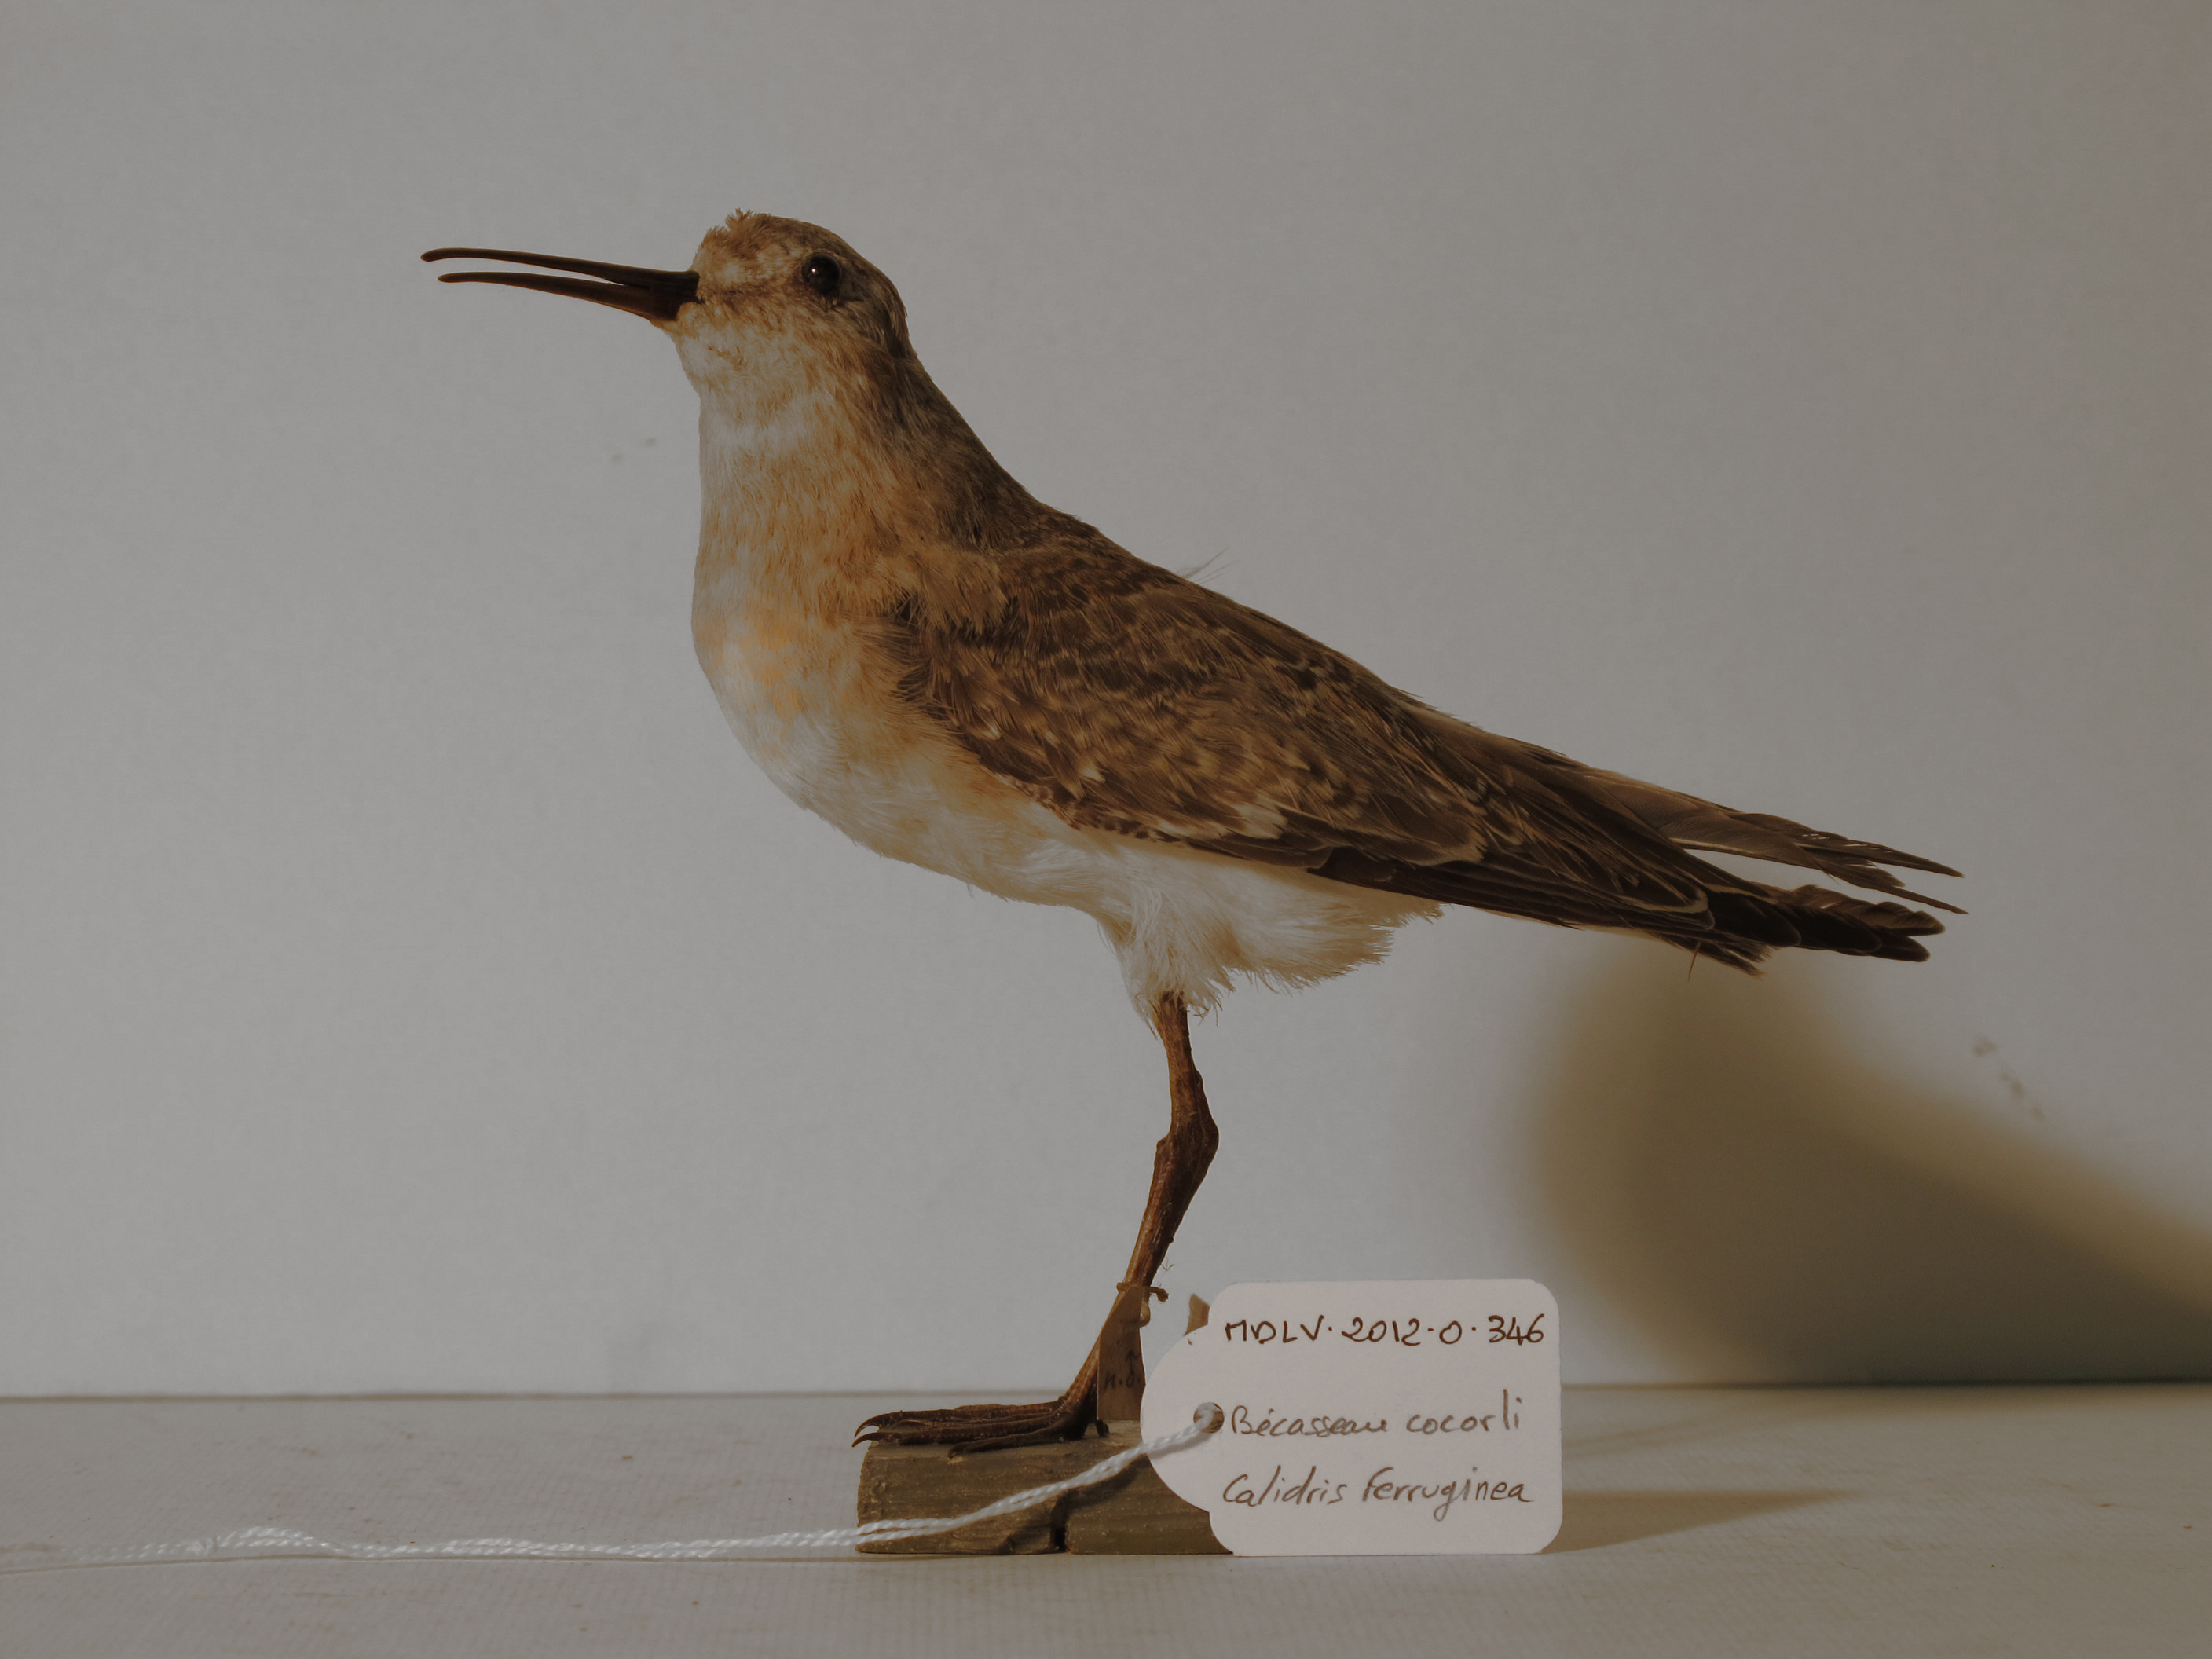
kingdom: Animalia
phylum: Chordata
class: Aves
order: Charadriiformes
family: Scolopacidae
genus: Calidris
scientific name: Calidris ferruginea
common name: Curlew Sandpiper
